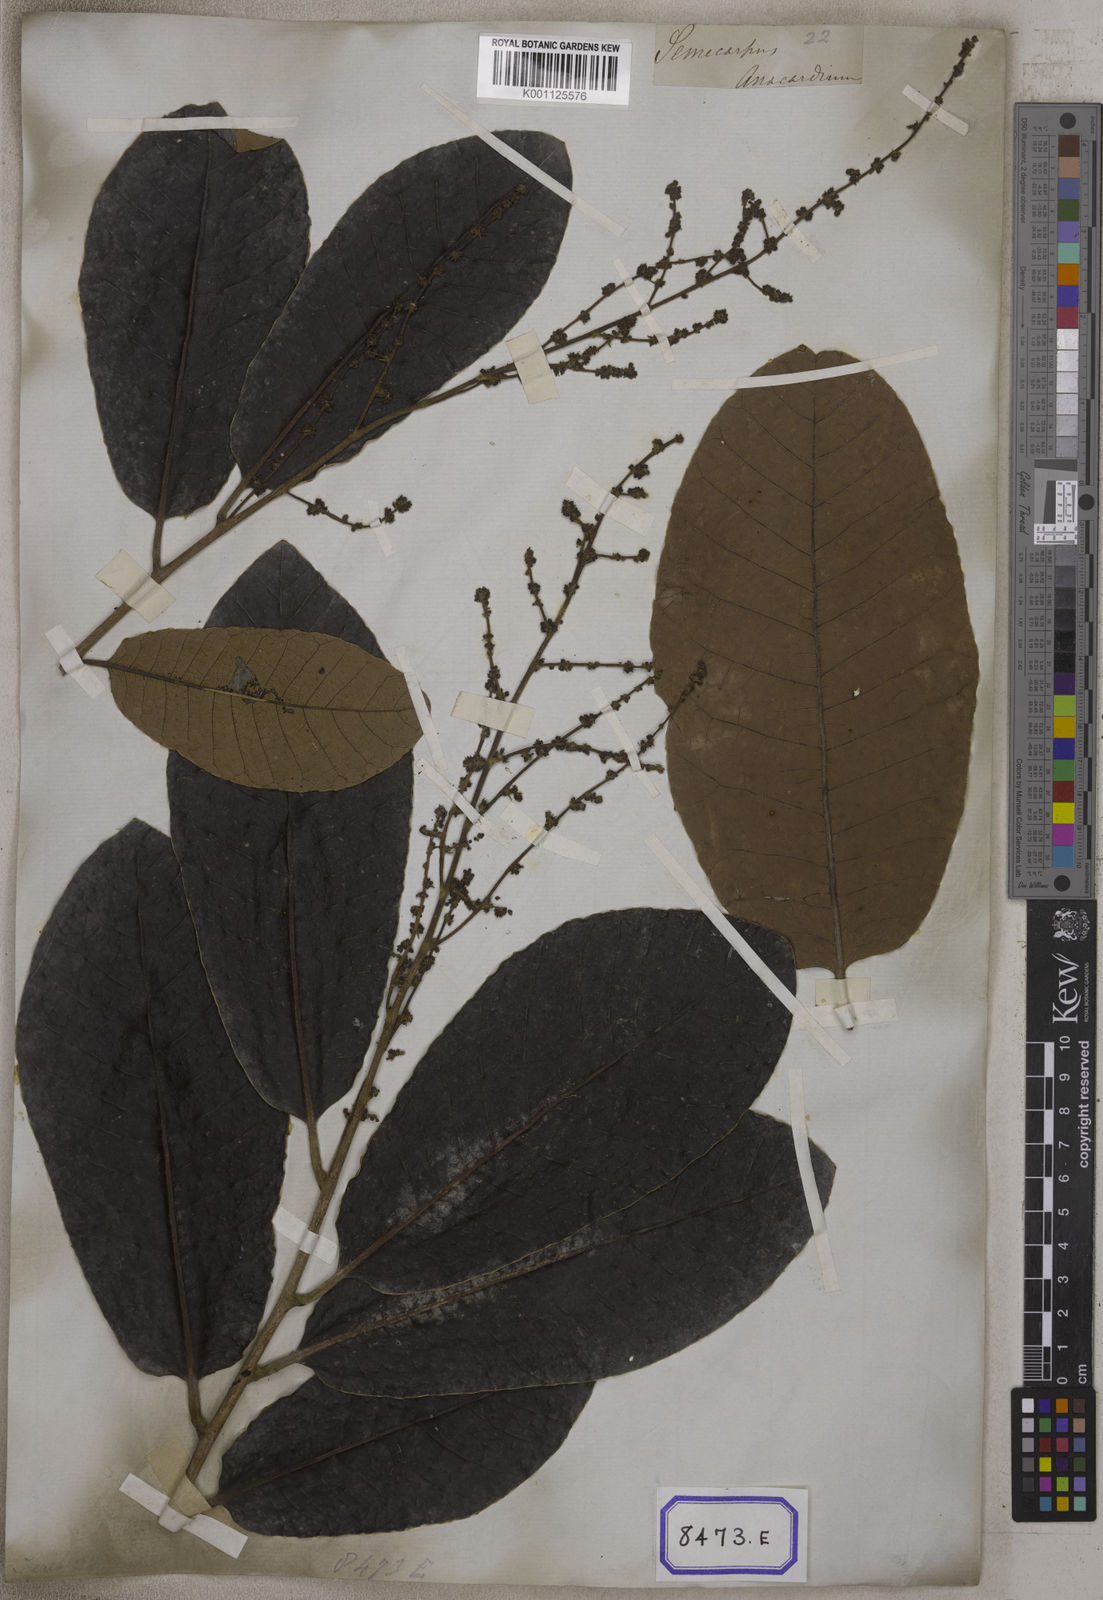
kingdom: Plantae
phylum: Tracheophyta
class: Magnoliopsida
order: Sapindales
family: Anacardiaceae
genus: Semecarpus
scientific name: Semecarpus anacardium
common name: Marking nut-tree
